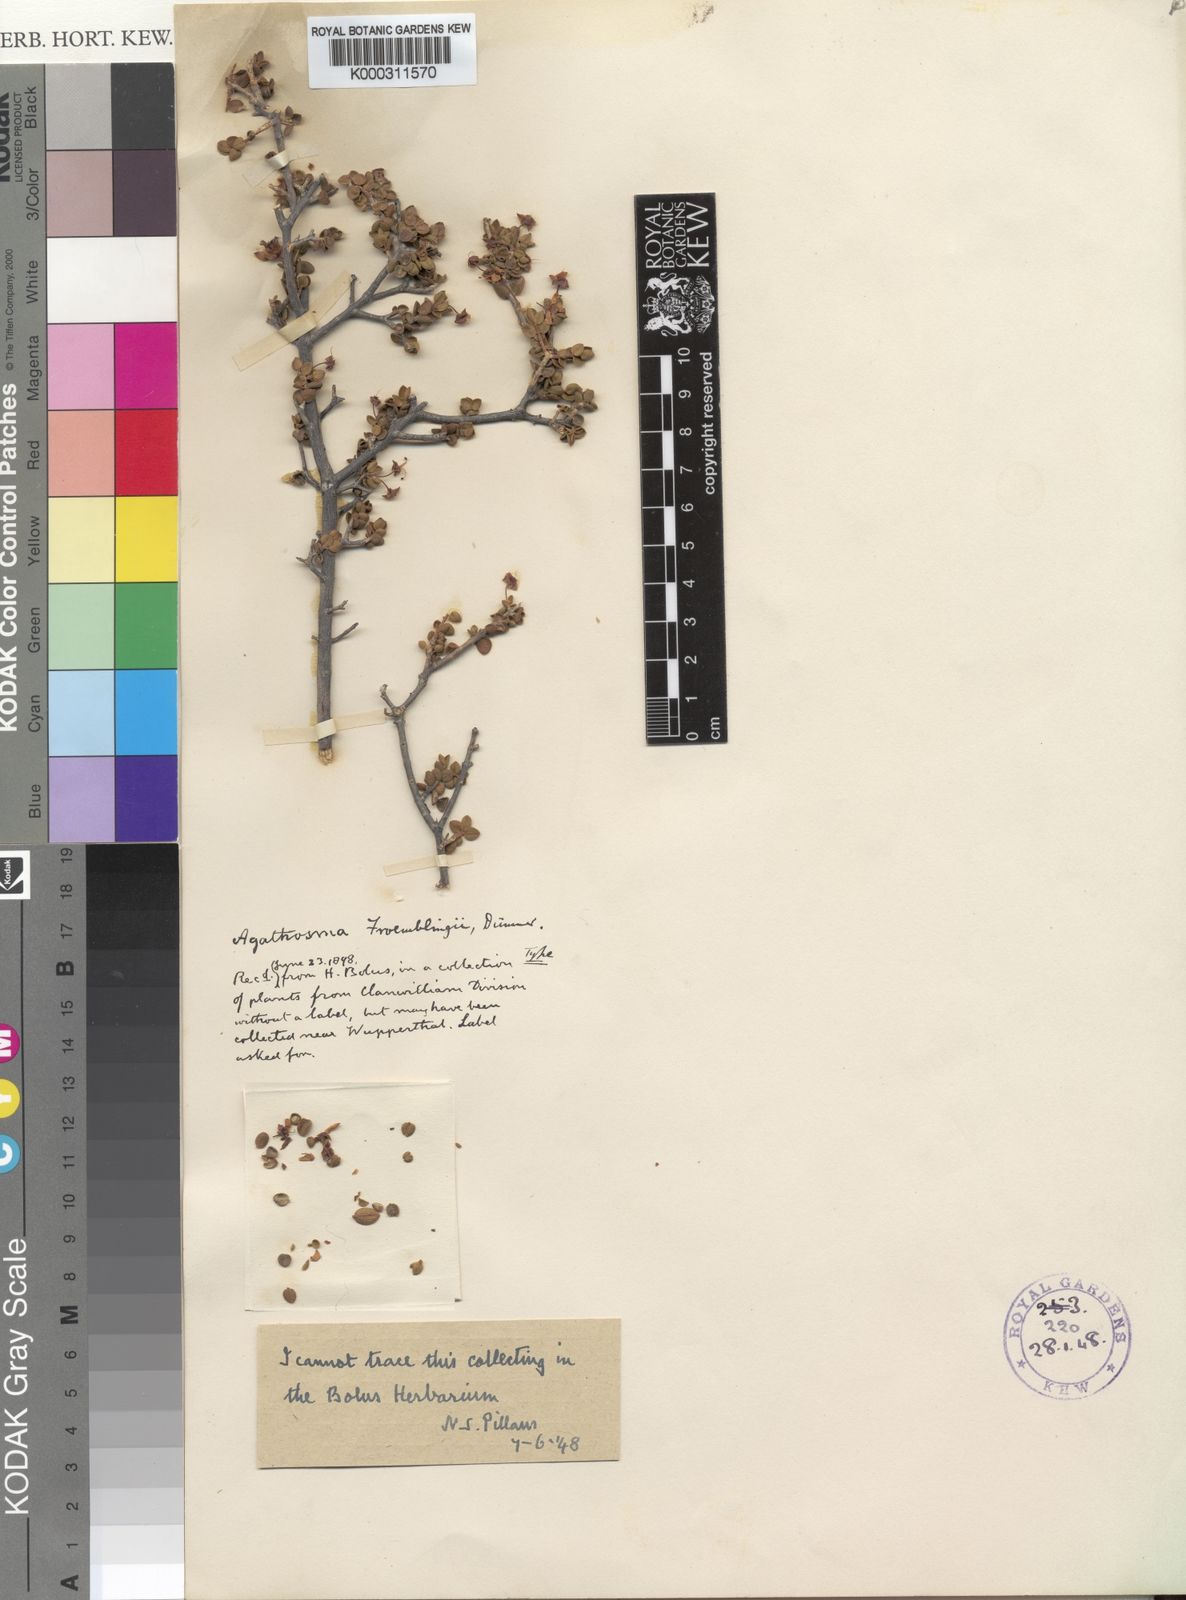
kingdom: Plantae
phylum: Tracheophyta
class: Magnoliopsida
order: Sapindales
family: Rutaceae
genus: Agathosma
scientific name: Agathosma
